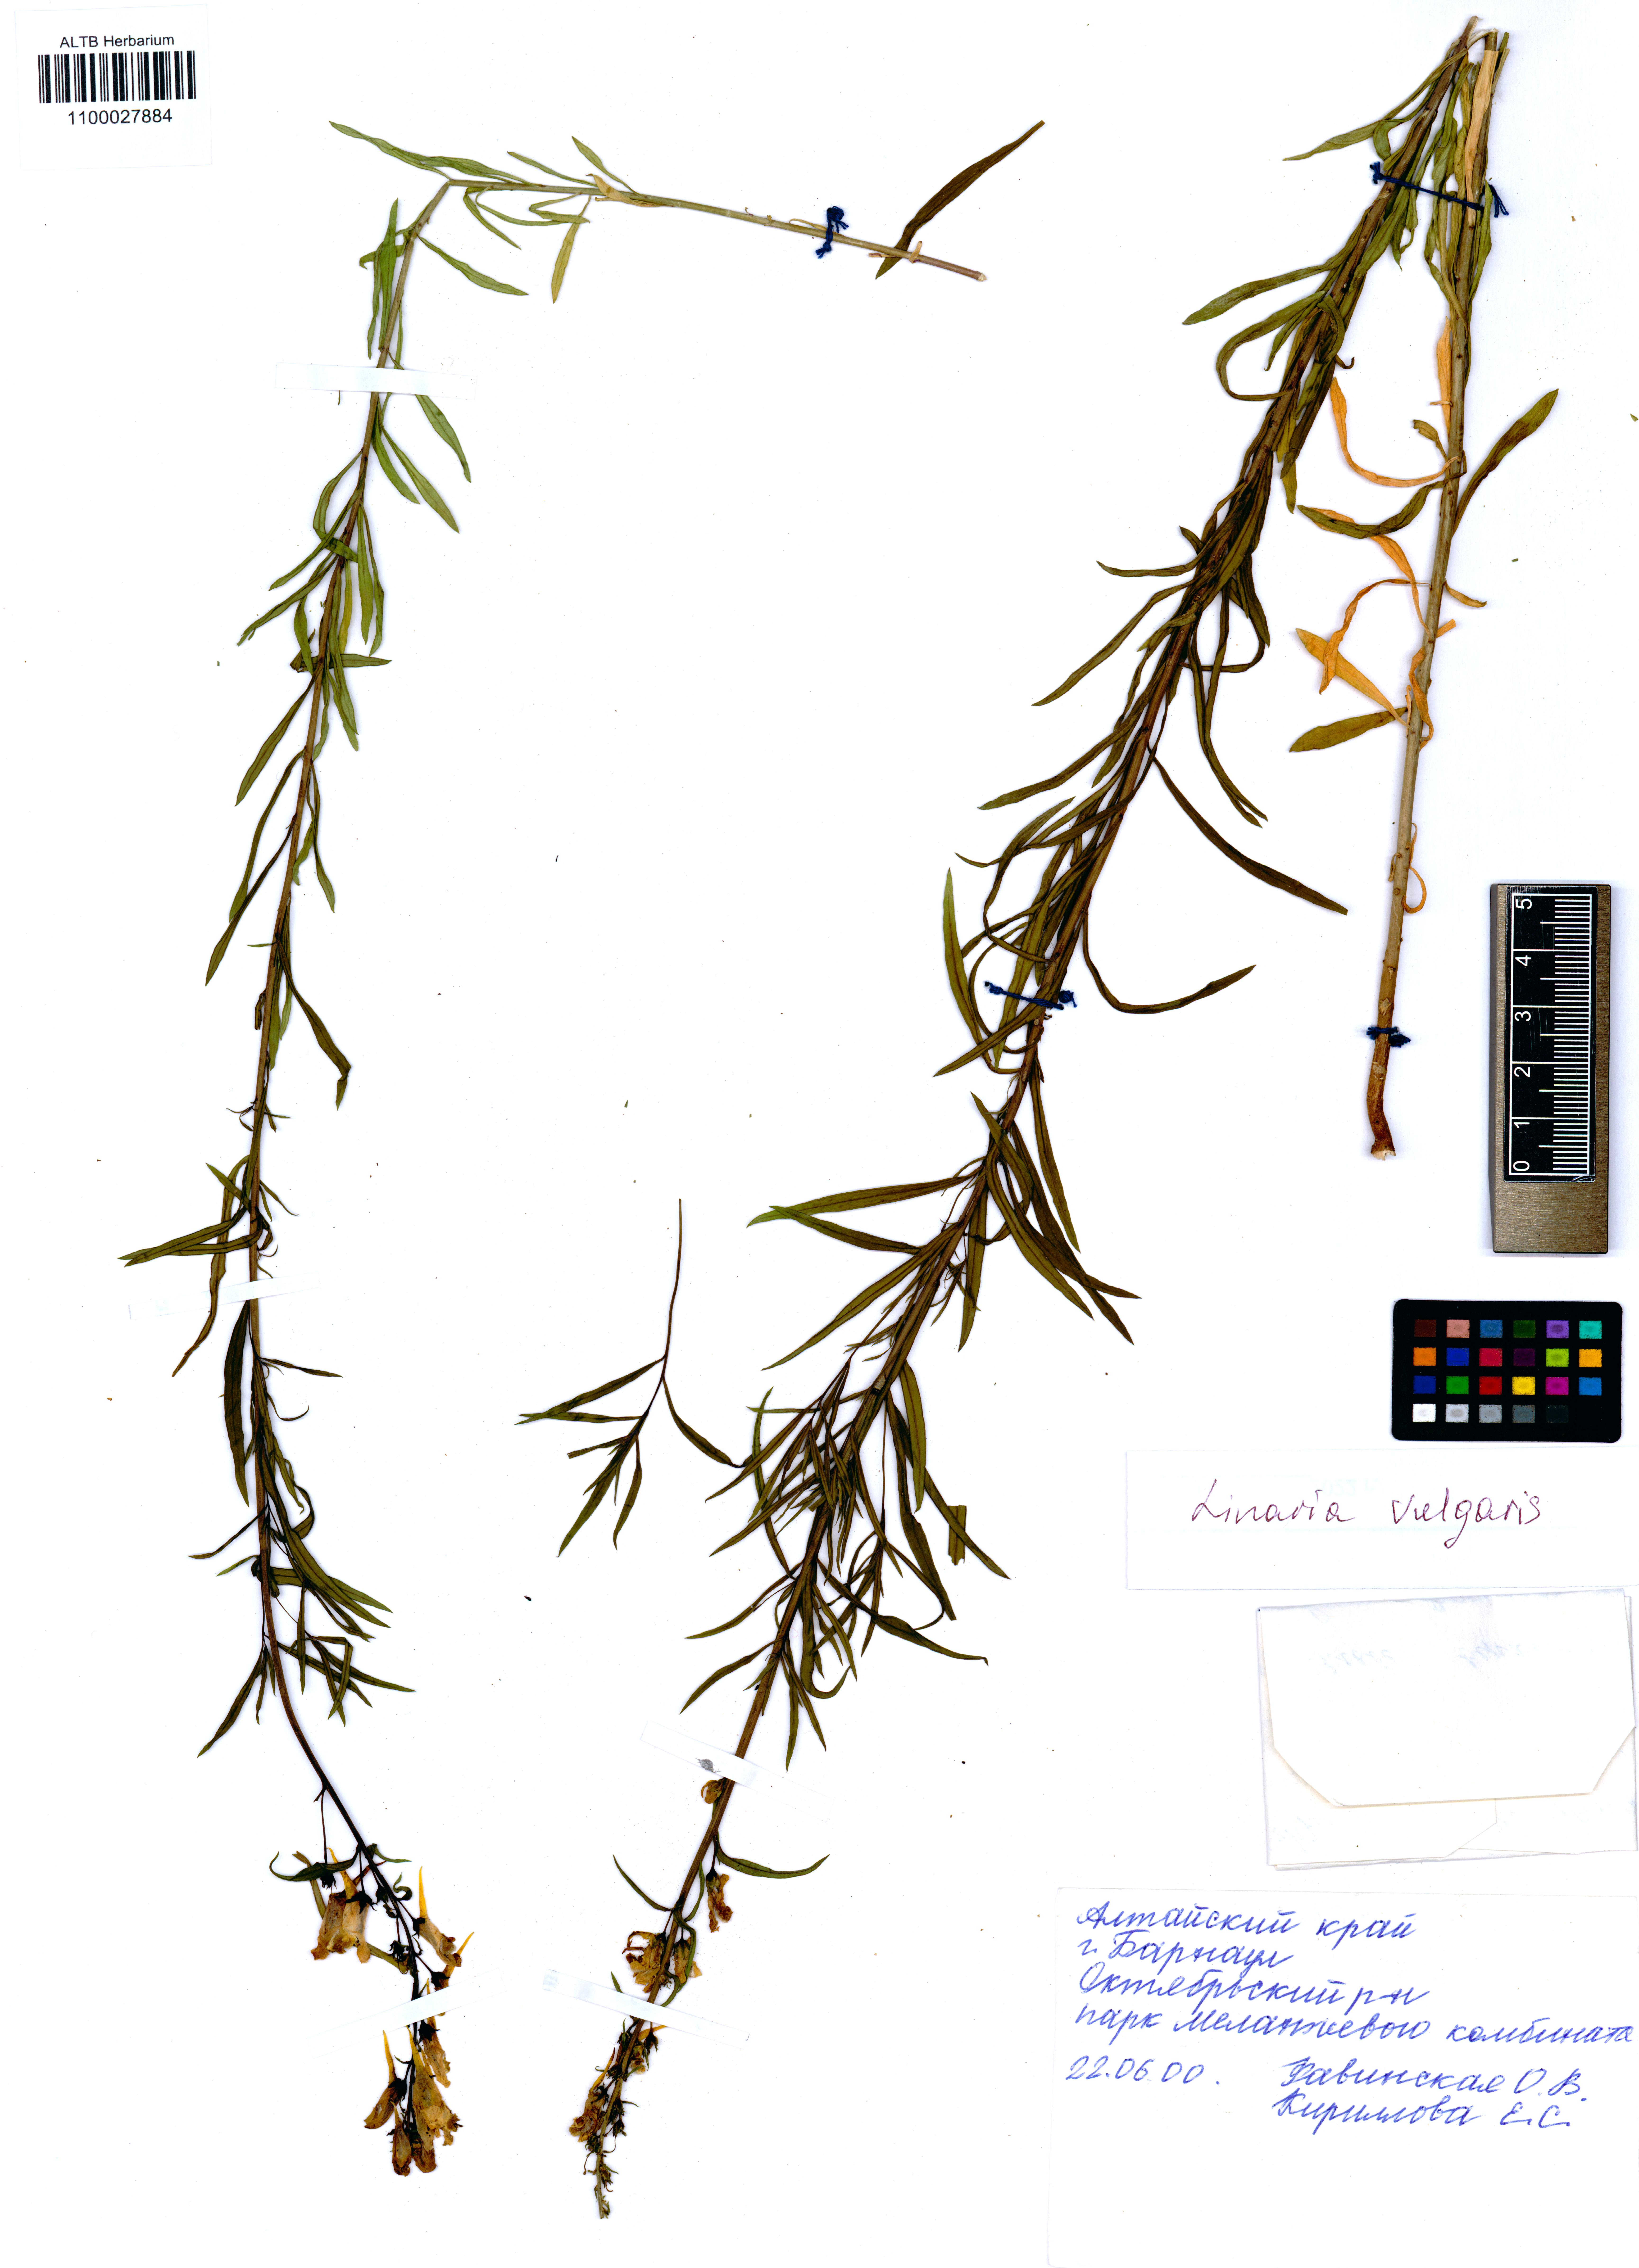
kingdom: Plantae
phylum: Tracheophyta
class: Magnoliopsida
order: Lamiales
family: Plantaginaceae
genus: Linaria
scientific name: Linaria vulgaris
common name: Butter and eggs
